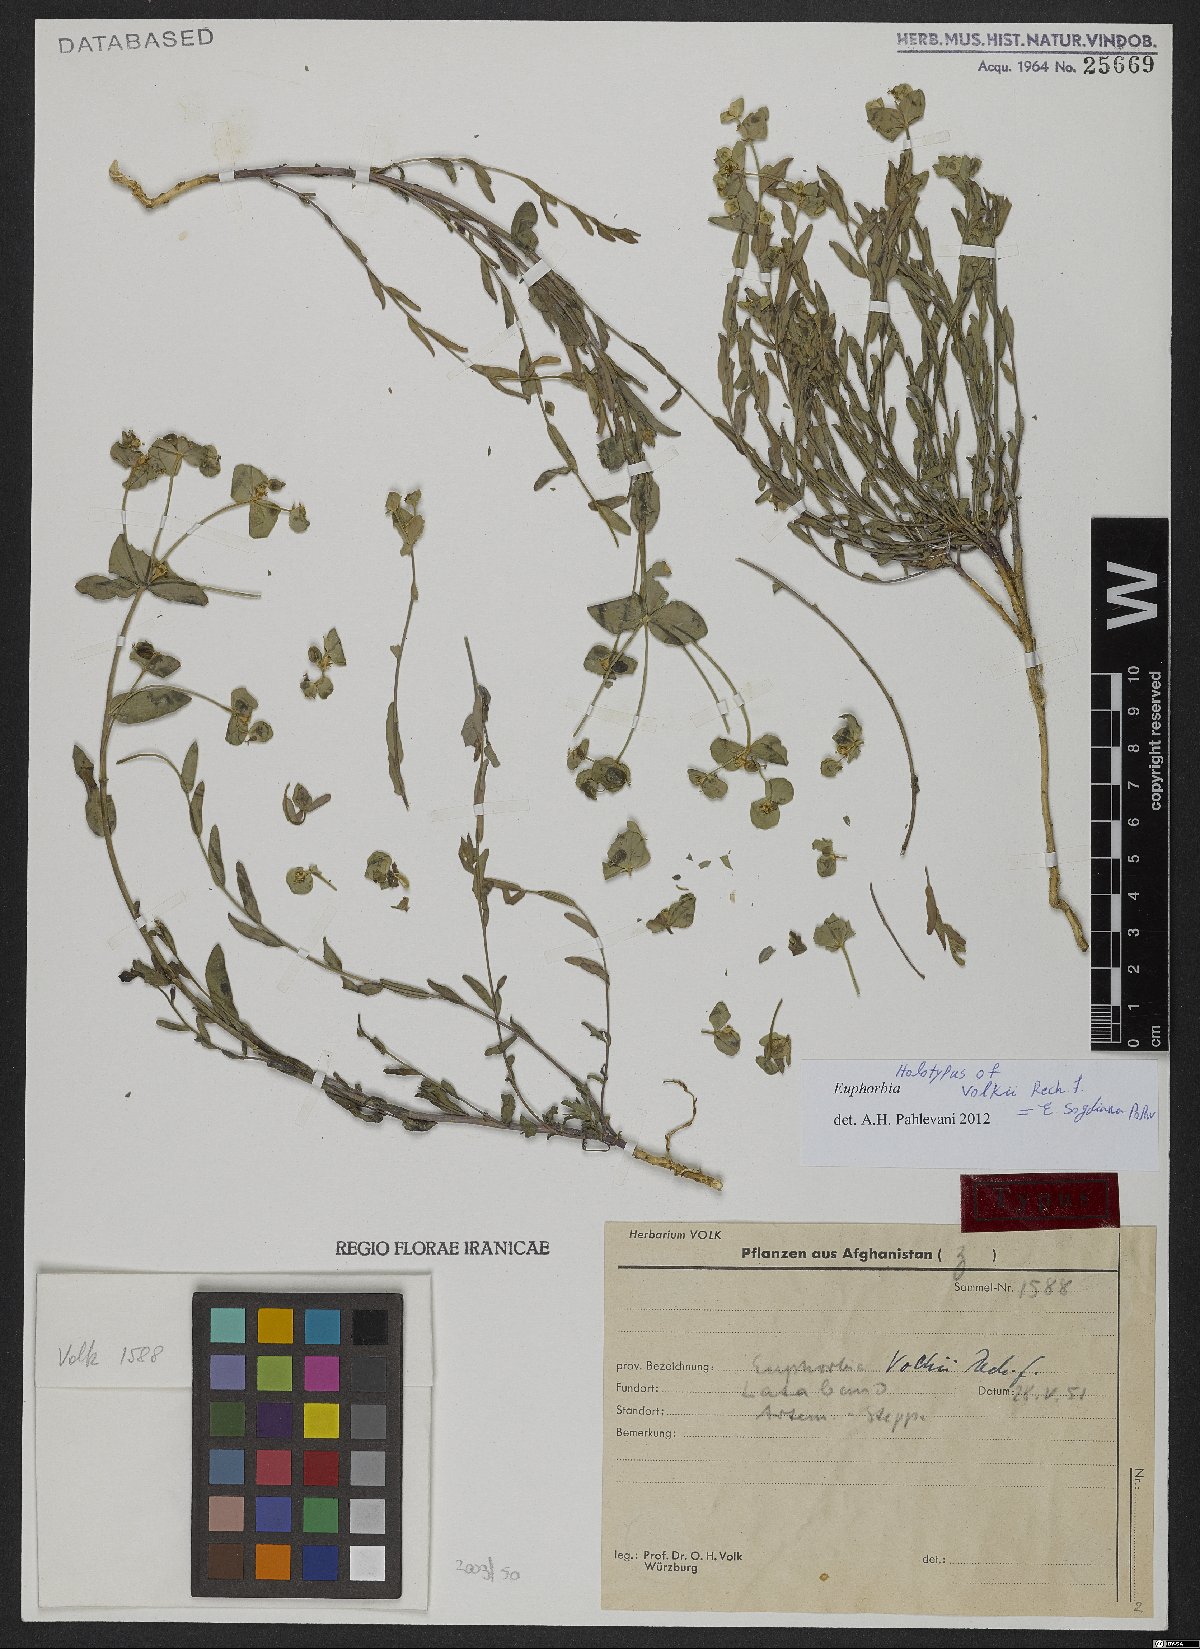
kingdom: Plantae
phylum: Tracheophyta
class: Magnoliopsida
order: Malpighiales
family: Euphorbiaceae
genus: Euphorbia
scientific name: Euphorbia sogdiana
